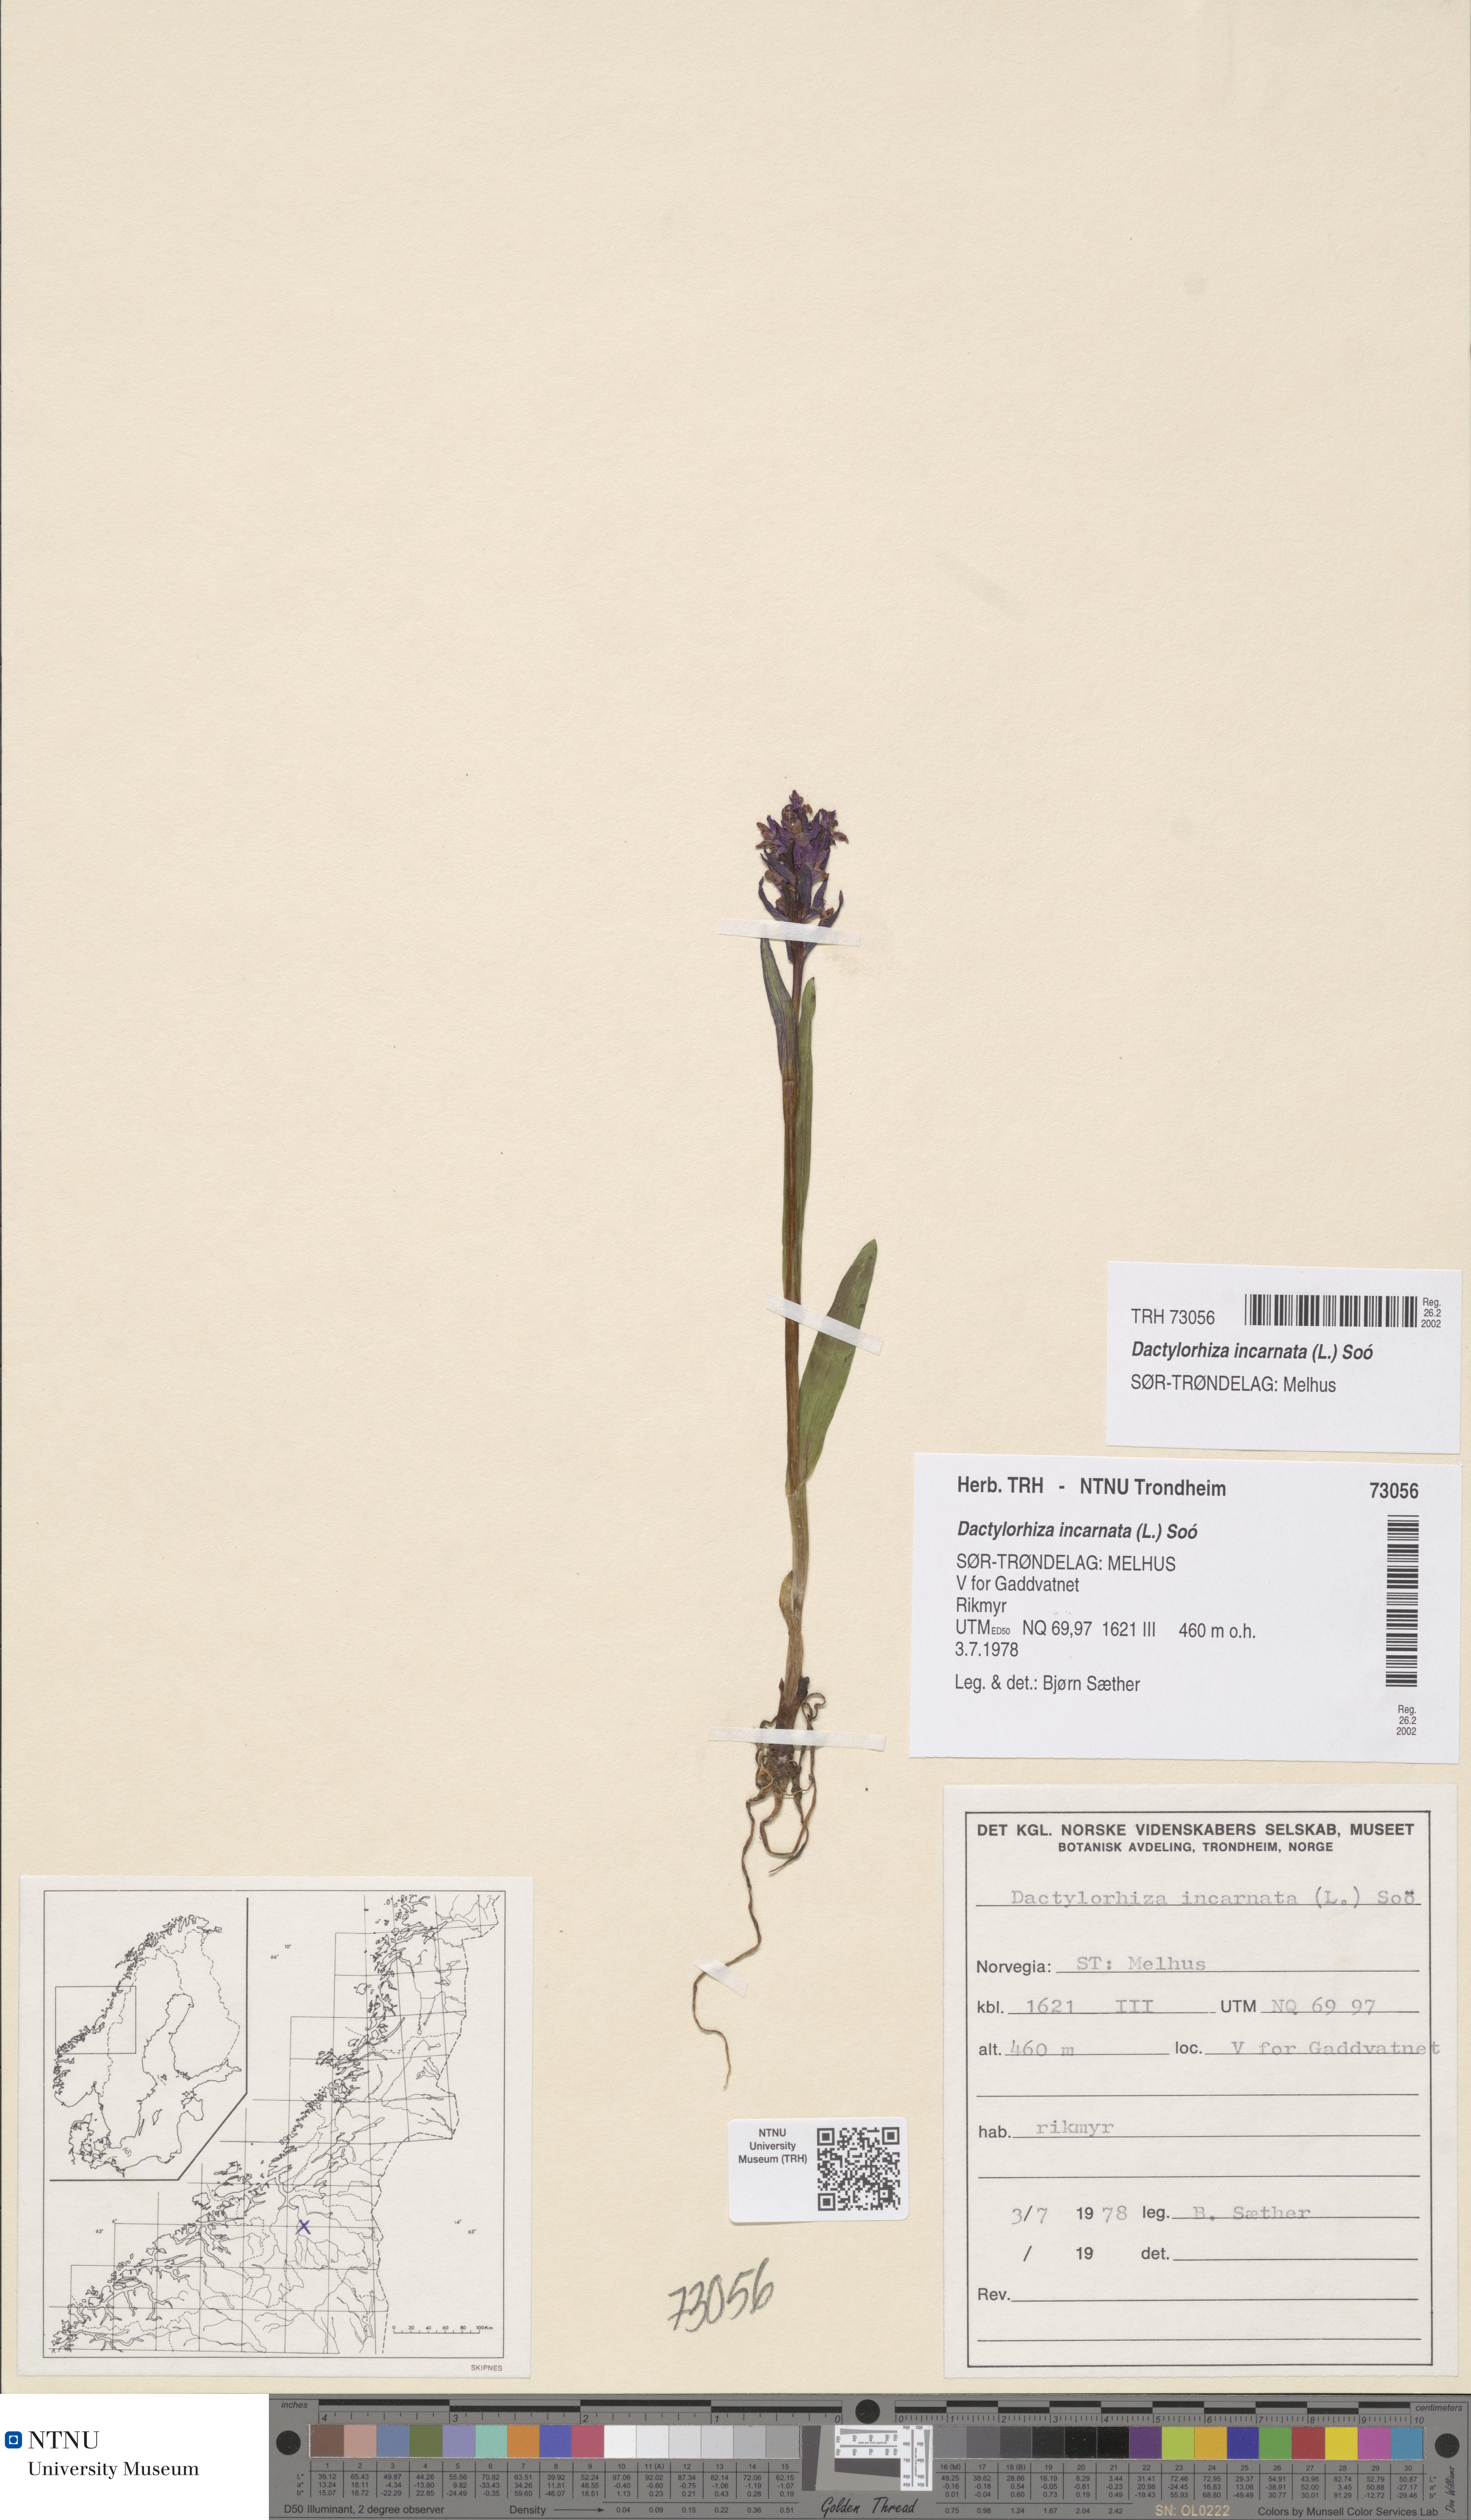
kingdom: Plantae
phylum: Tracheophyta
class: Liliopsida
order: Asparagales
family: Orchidaceae
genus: Dactylorhiza
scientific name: Dactylorhiza incarnata
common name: Early marsh-orchid
